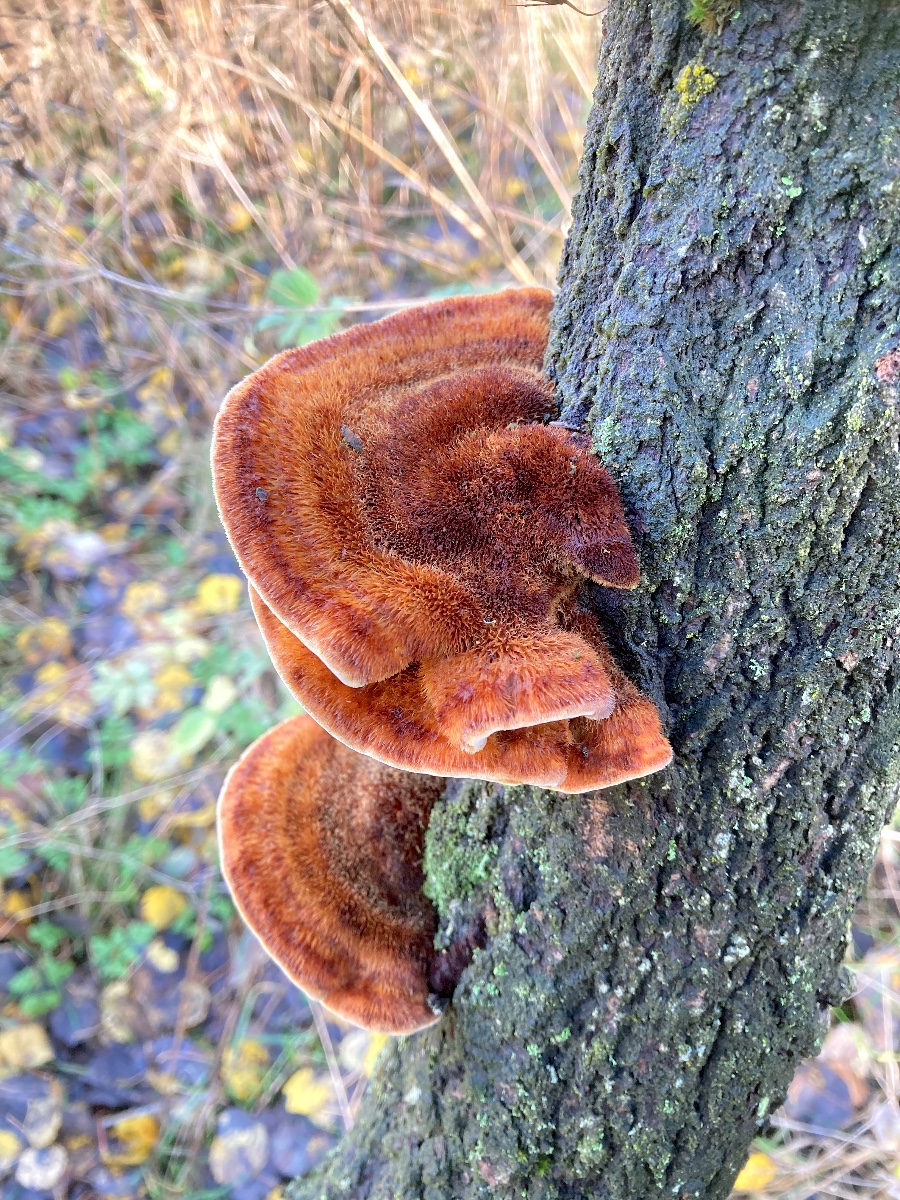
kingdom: Fungi
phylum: Basidiomycota
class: Agaricomycetes
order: Hymenochaetales
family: Hymenochaetaceae
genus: Inocutis
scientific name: Inocutis rheades
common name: ræve-spejlporesvamp
